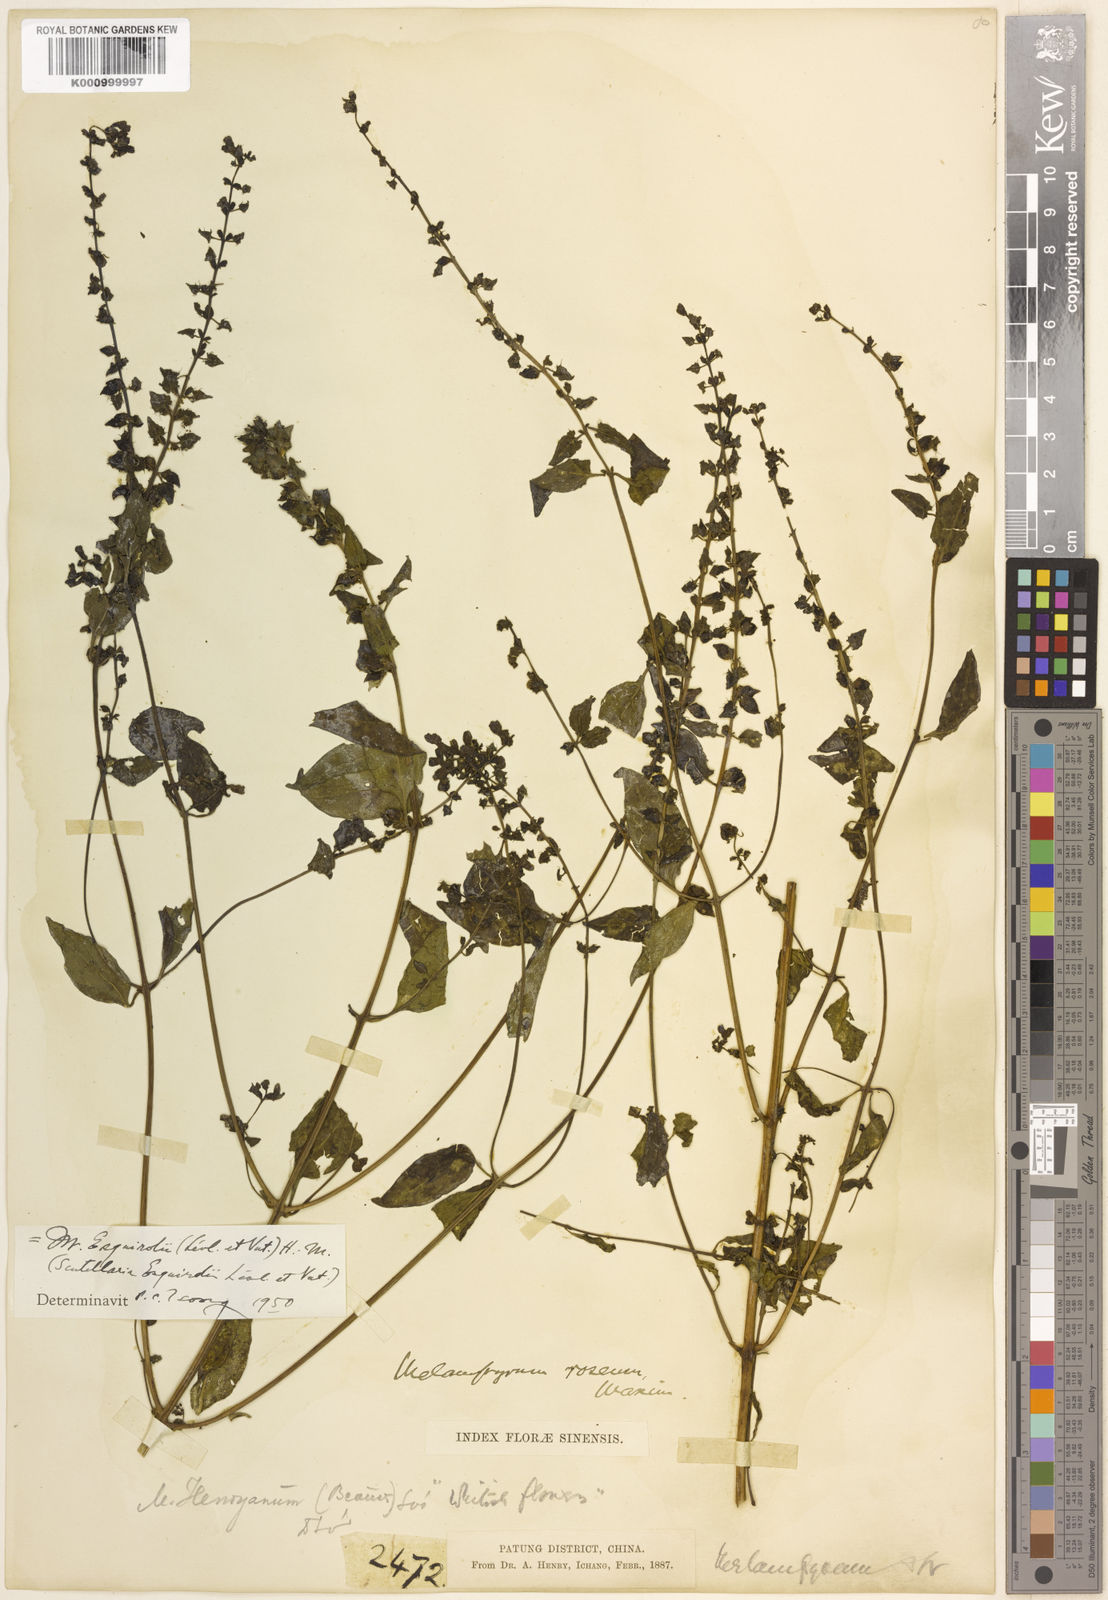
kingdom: Plantae
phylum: Tracheophyta
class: Magnoliopsida
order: Lamiales
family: Orobanchaceae
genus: Melampyrum
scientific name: Melampyrum
